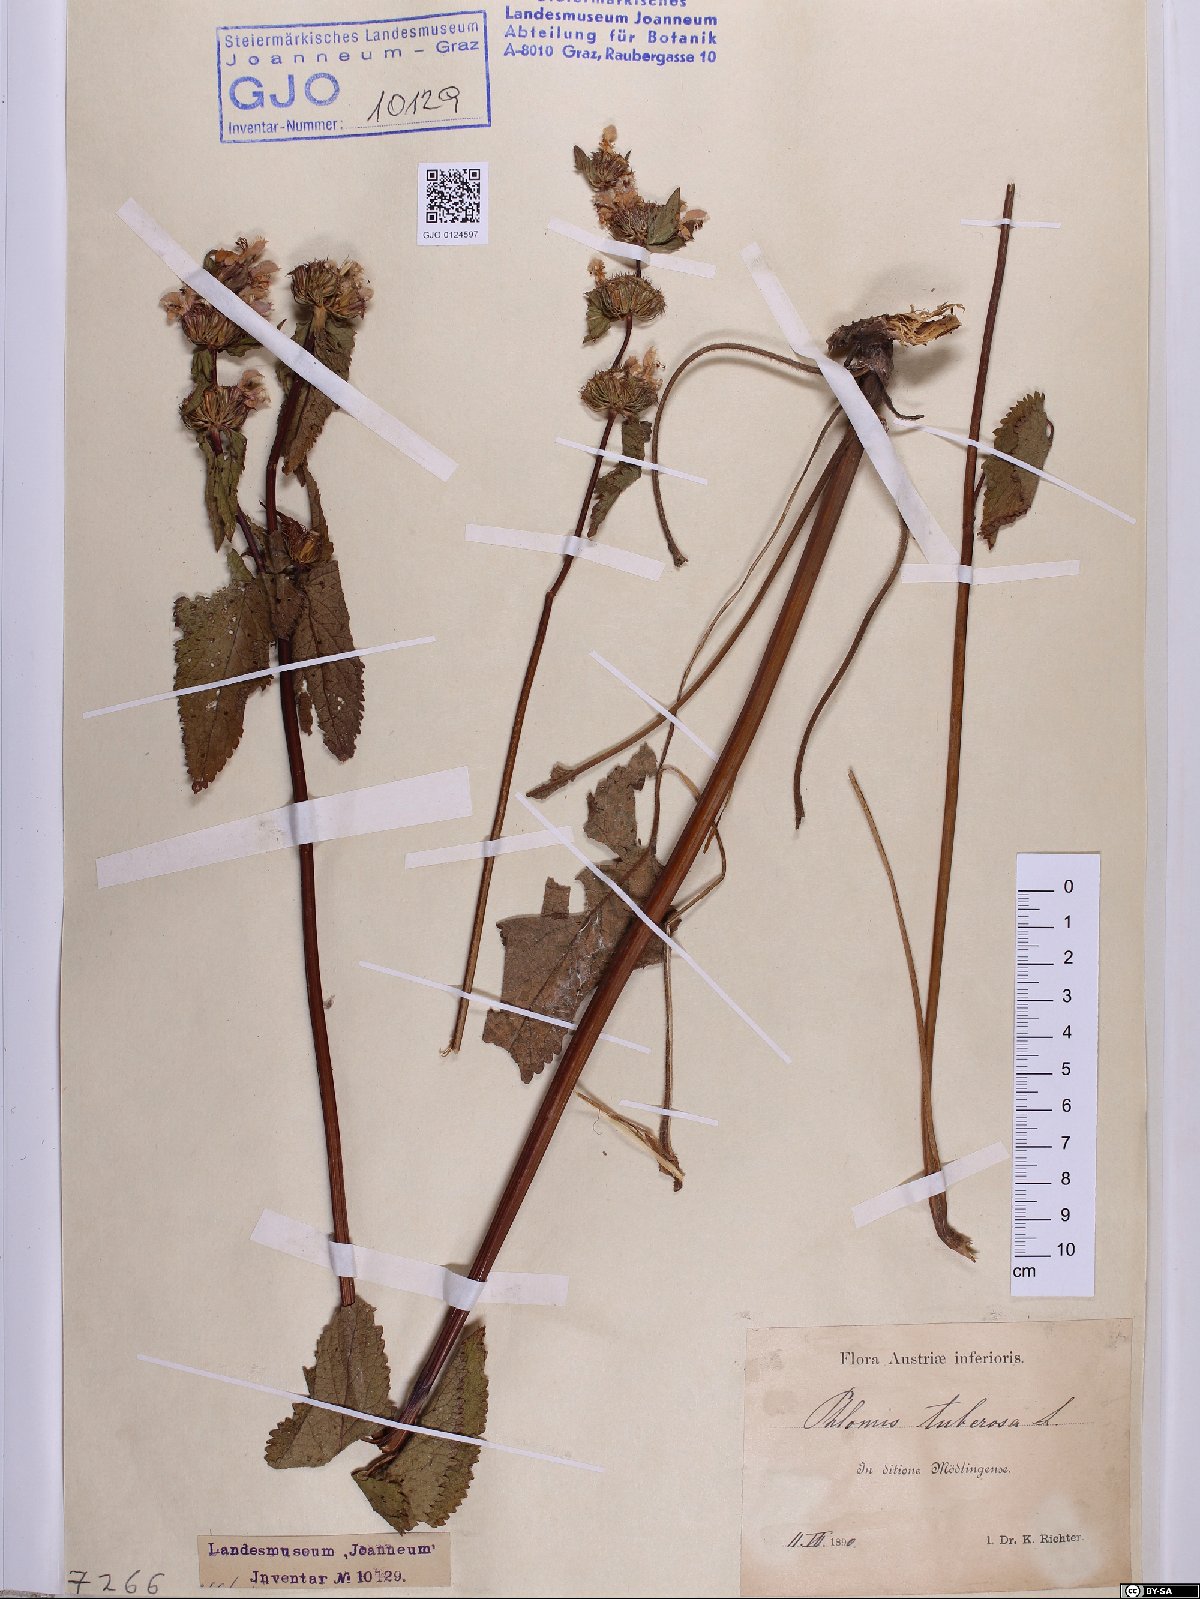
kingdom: Plantae
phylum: Tracheophyta
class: Magnoliopsida
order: Lamiales
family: Lamiaceae
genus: Phlomoides
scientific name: Phlomoides tuberosa
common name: Tuberous jerusalem sage
